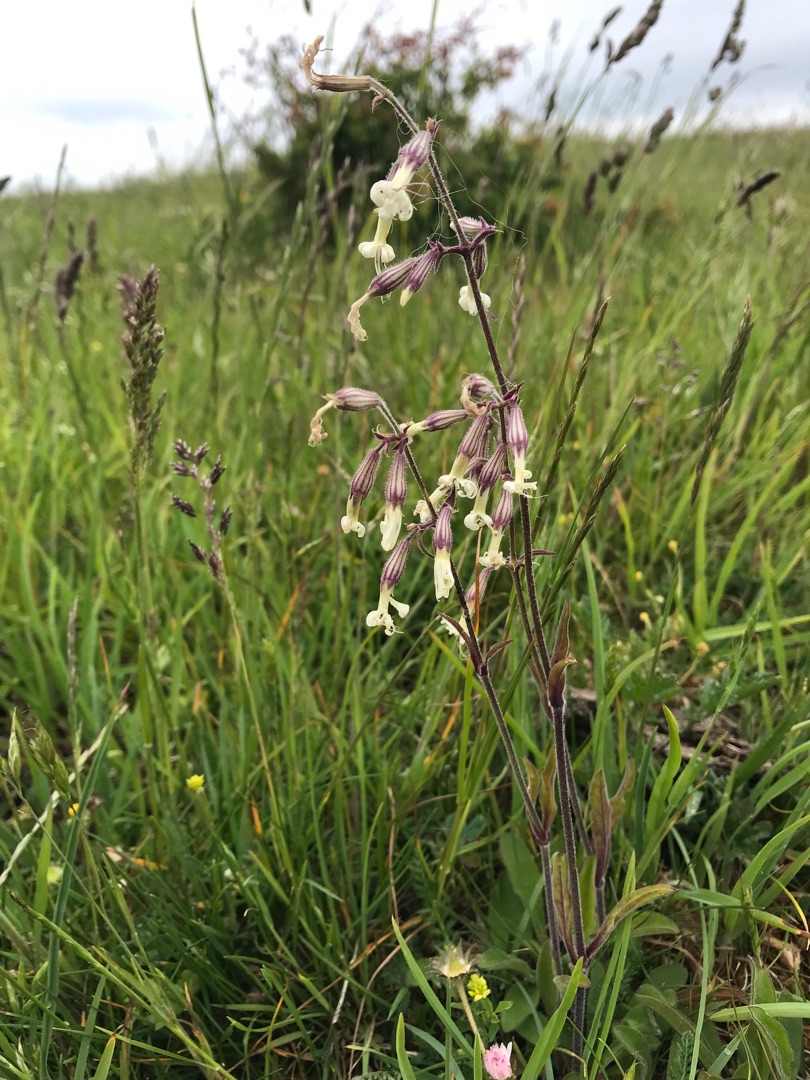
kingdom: Plantae
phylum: Tracheophyta
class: Magnoliopsida
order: Caryophyllales
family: Caryophyllaceae
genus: Silene
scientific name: Silene nutans
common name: Nikkende limurt
